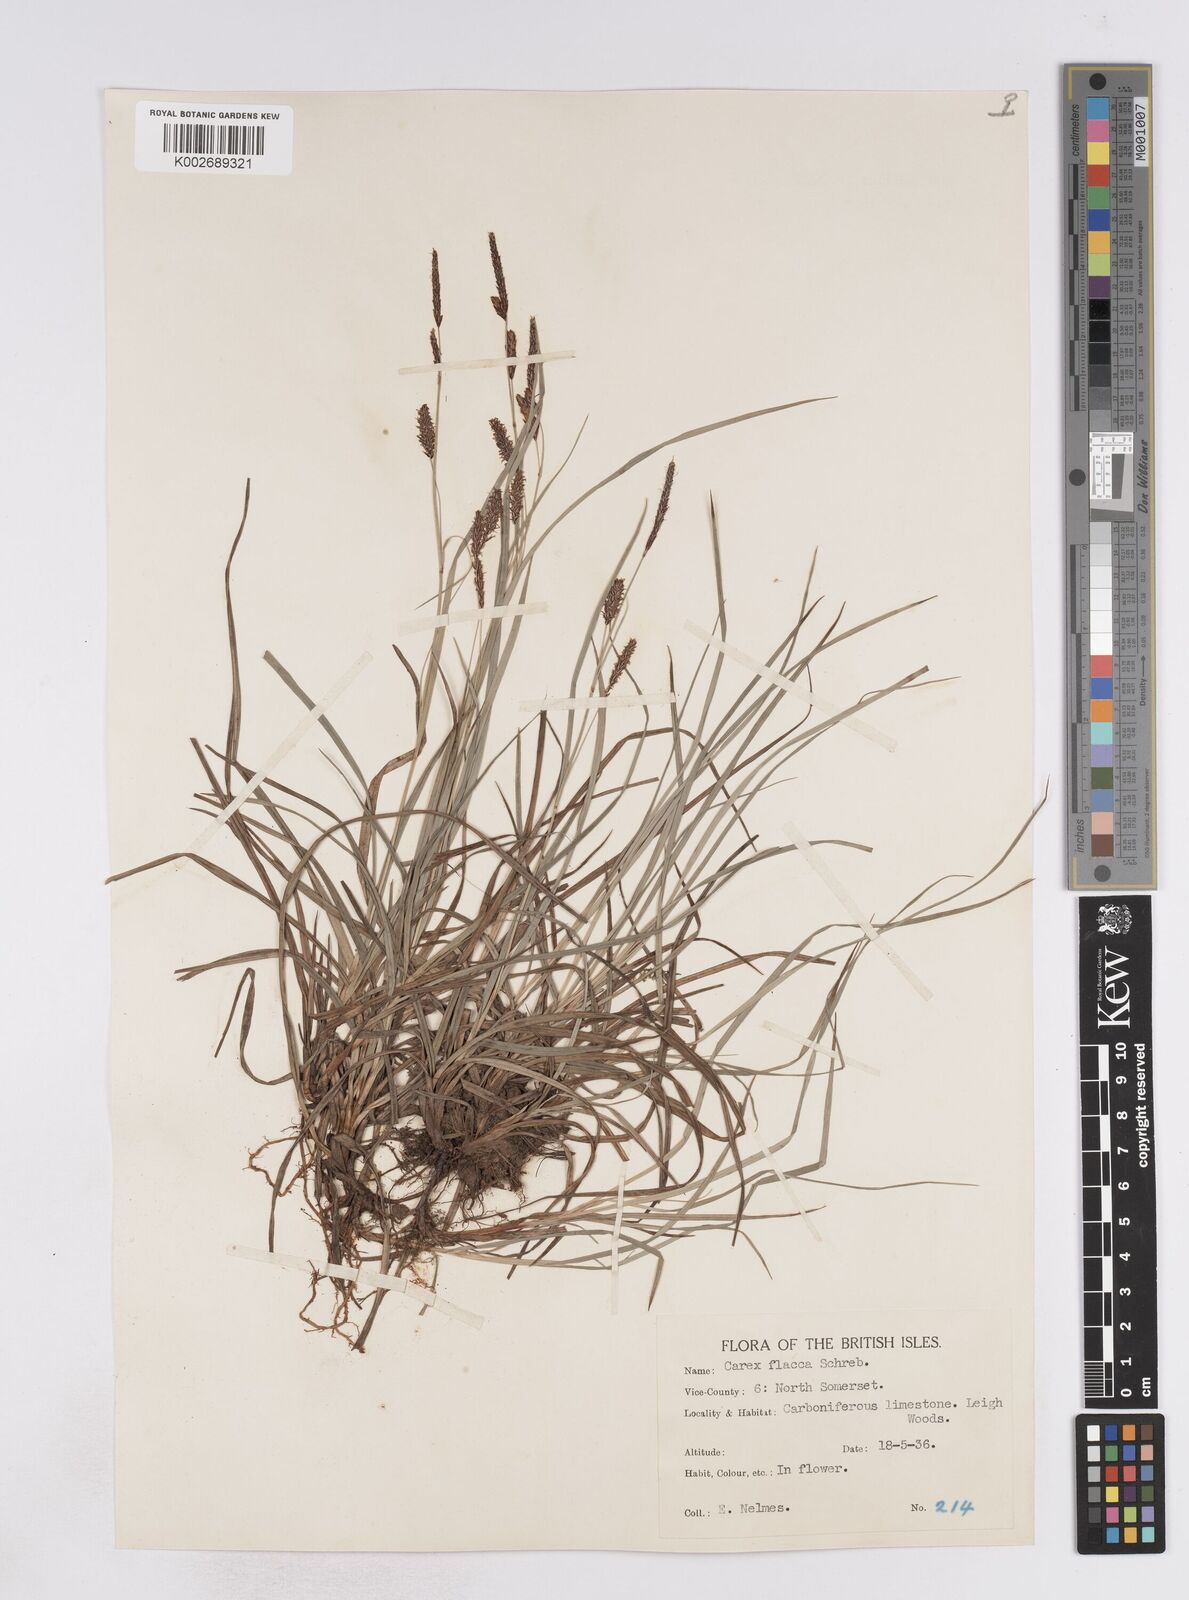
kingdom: Plantae
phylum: Tracheophyta
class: Liliopsida
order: Poales
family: Cyperaceae
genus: Carex
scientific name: Carex flacca
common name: Glaucous sedge
